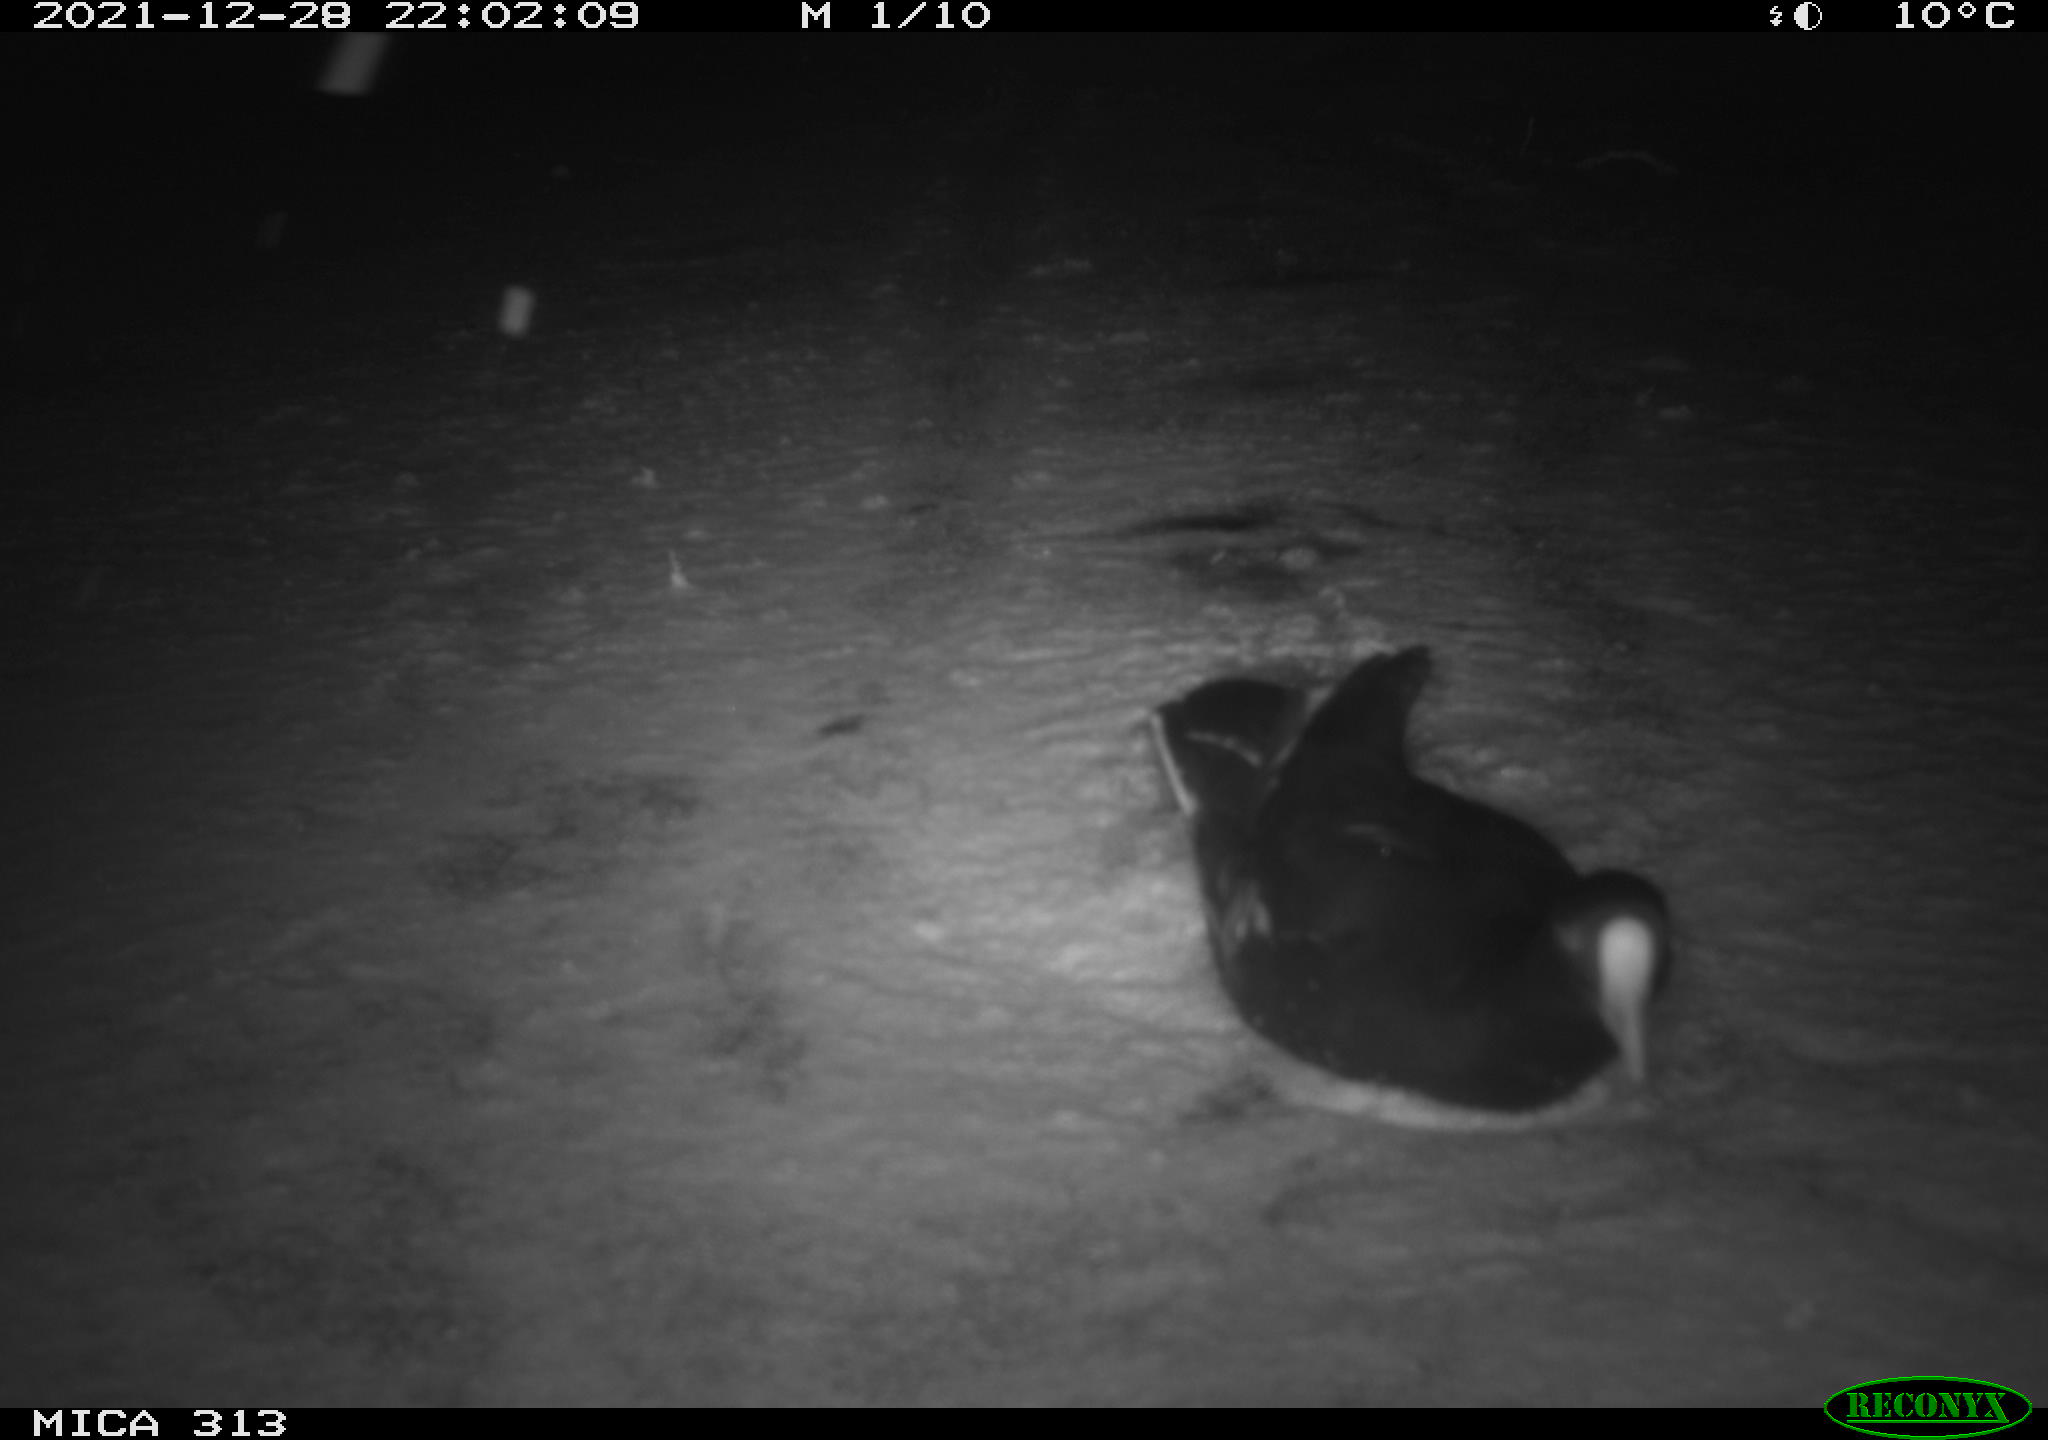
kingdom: Animalia
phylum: Chordata
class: Aves
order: Gruiformes
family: Rallidae
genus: Gallinula
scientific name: Gallinula chloropus
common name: Common moorhen
